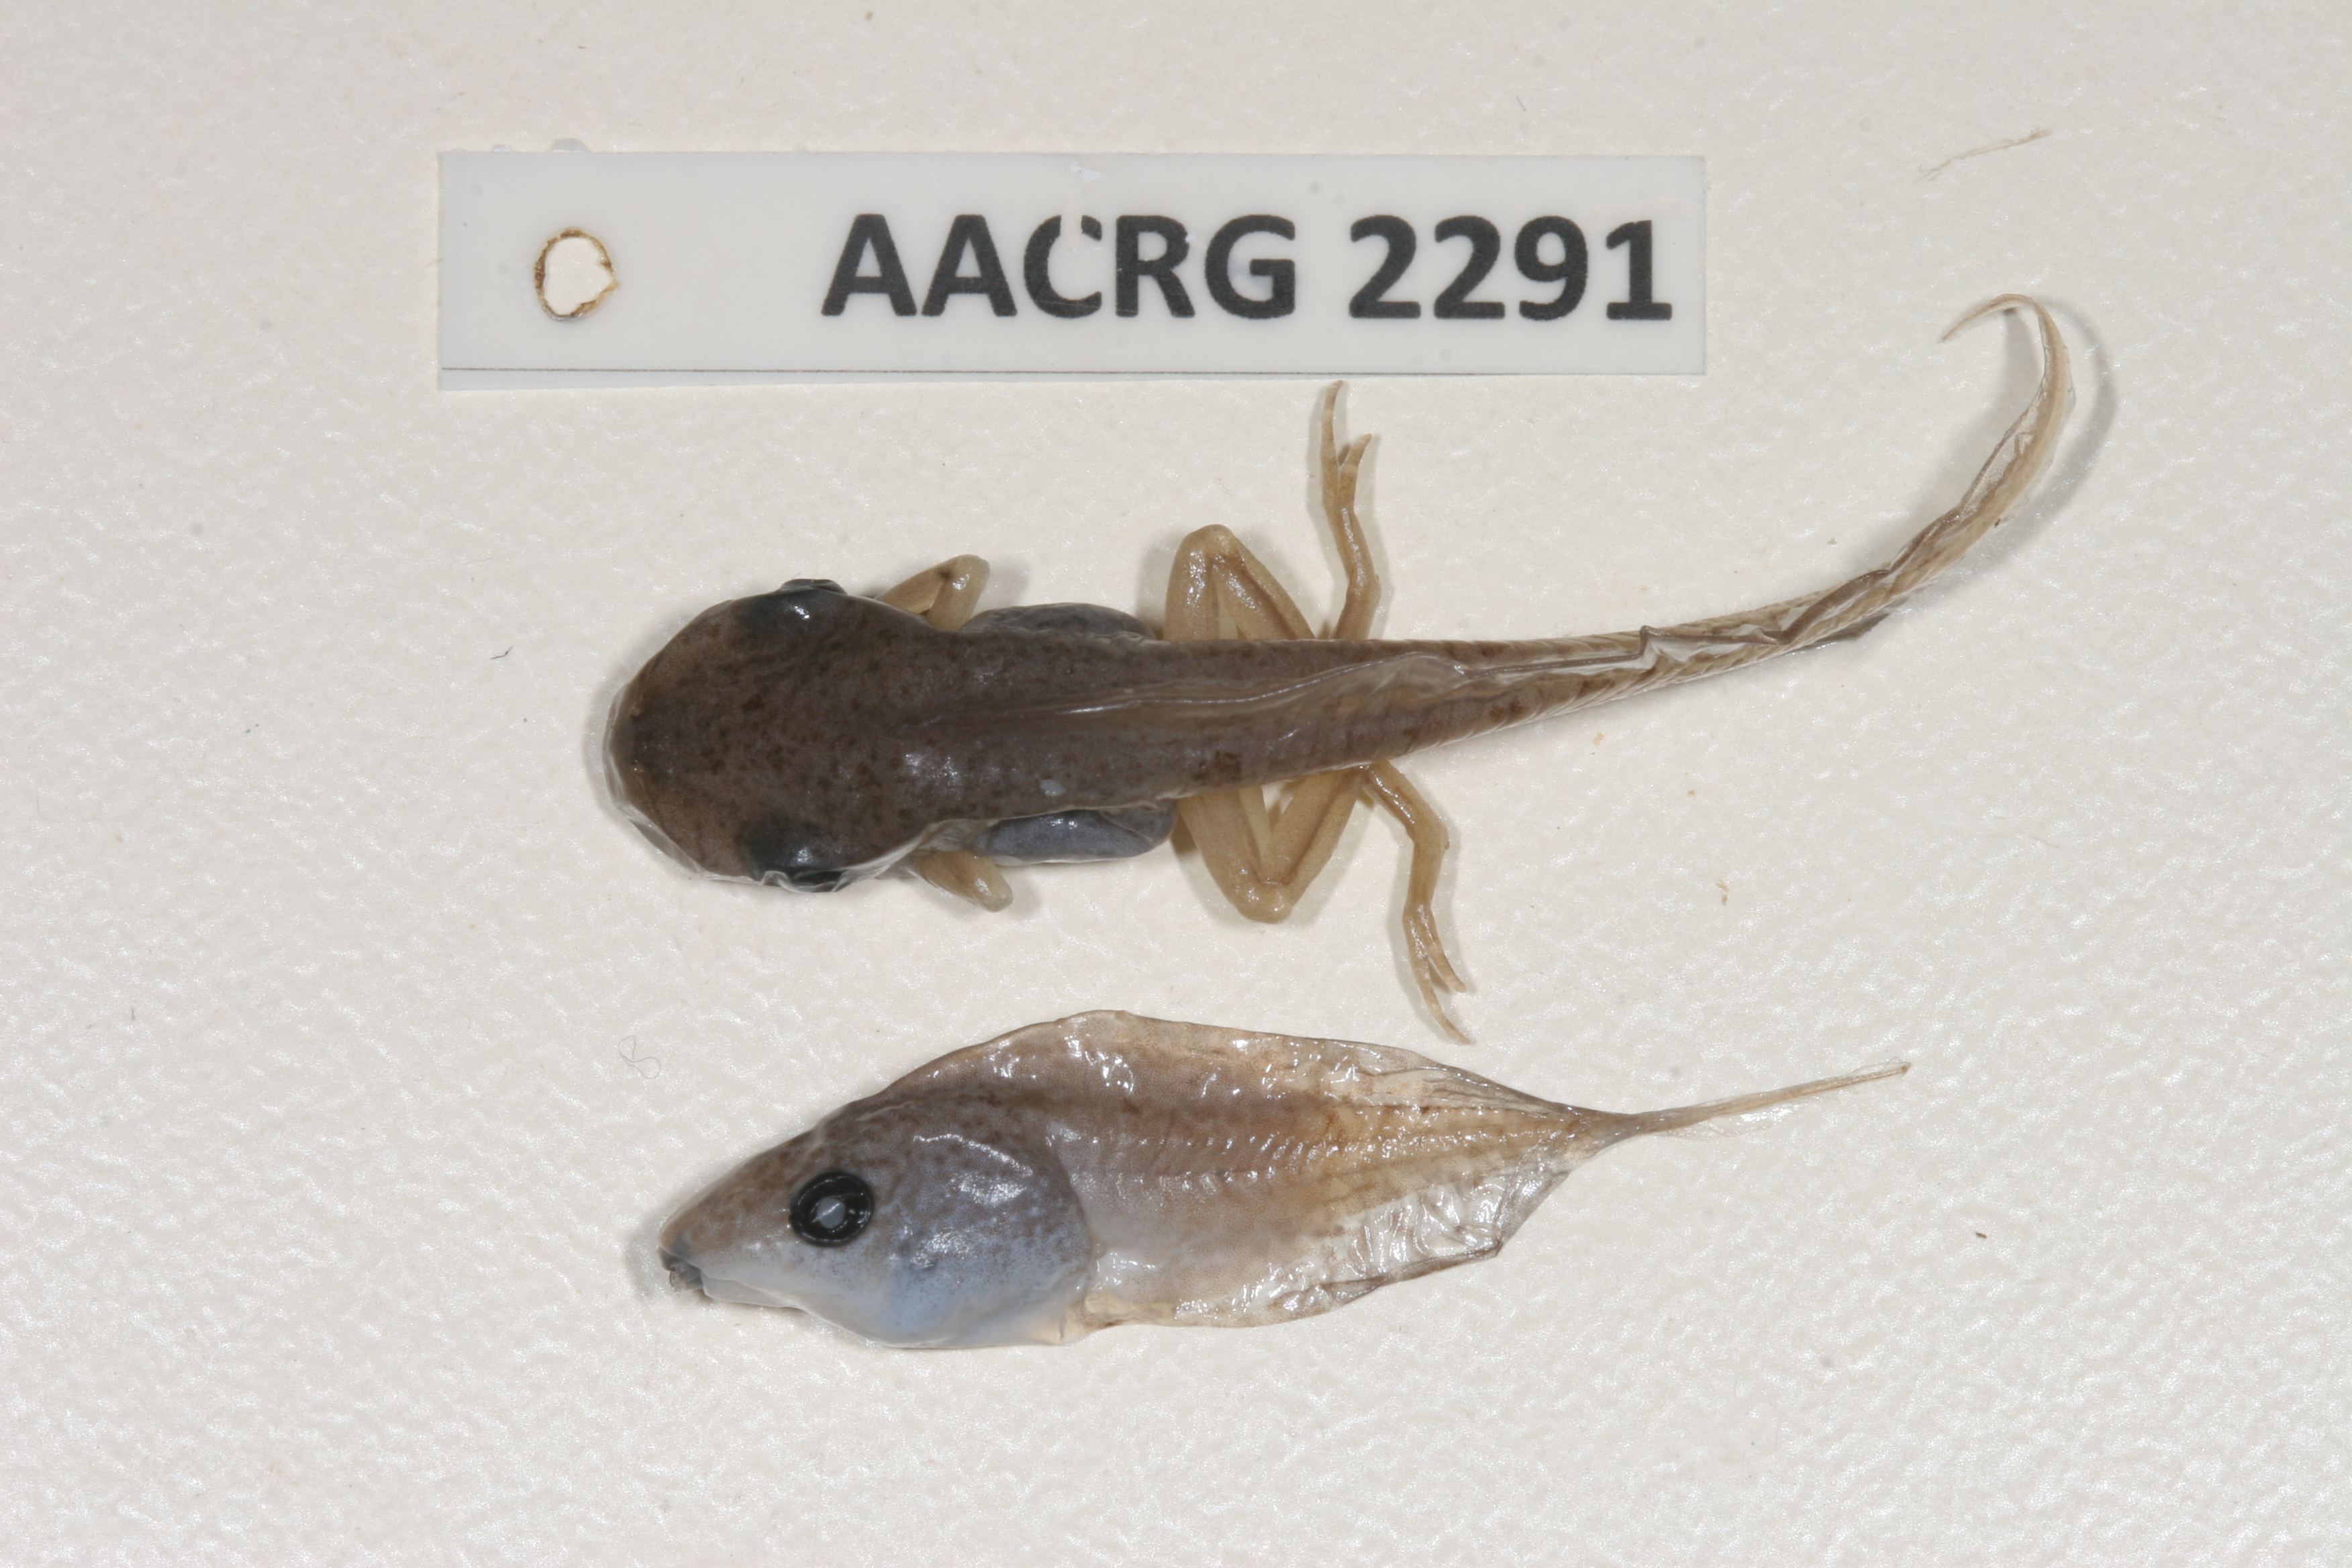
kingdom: Animalia
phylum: Chordata
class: Amphibia
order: Anura
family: Hyperoliidae
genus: Kassina
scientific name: Kassina senegalensis
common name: Senegal land frog
